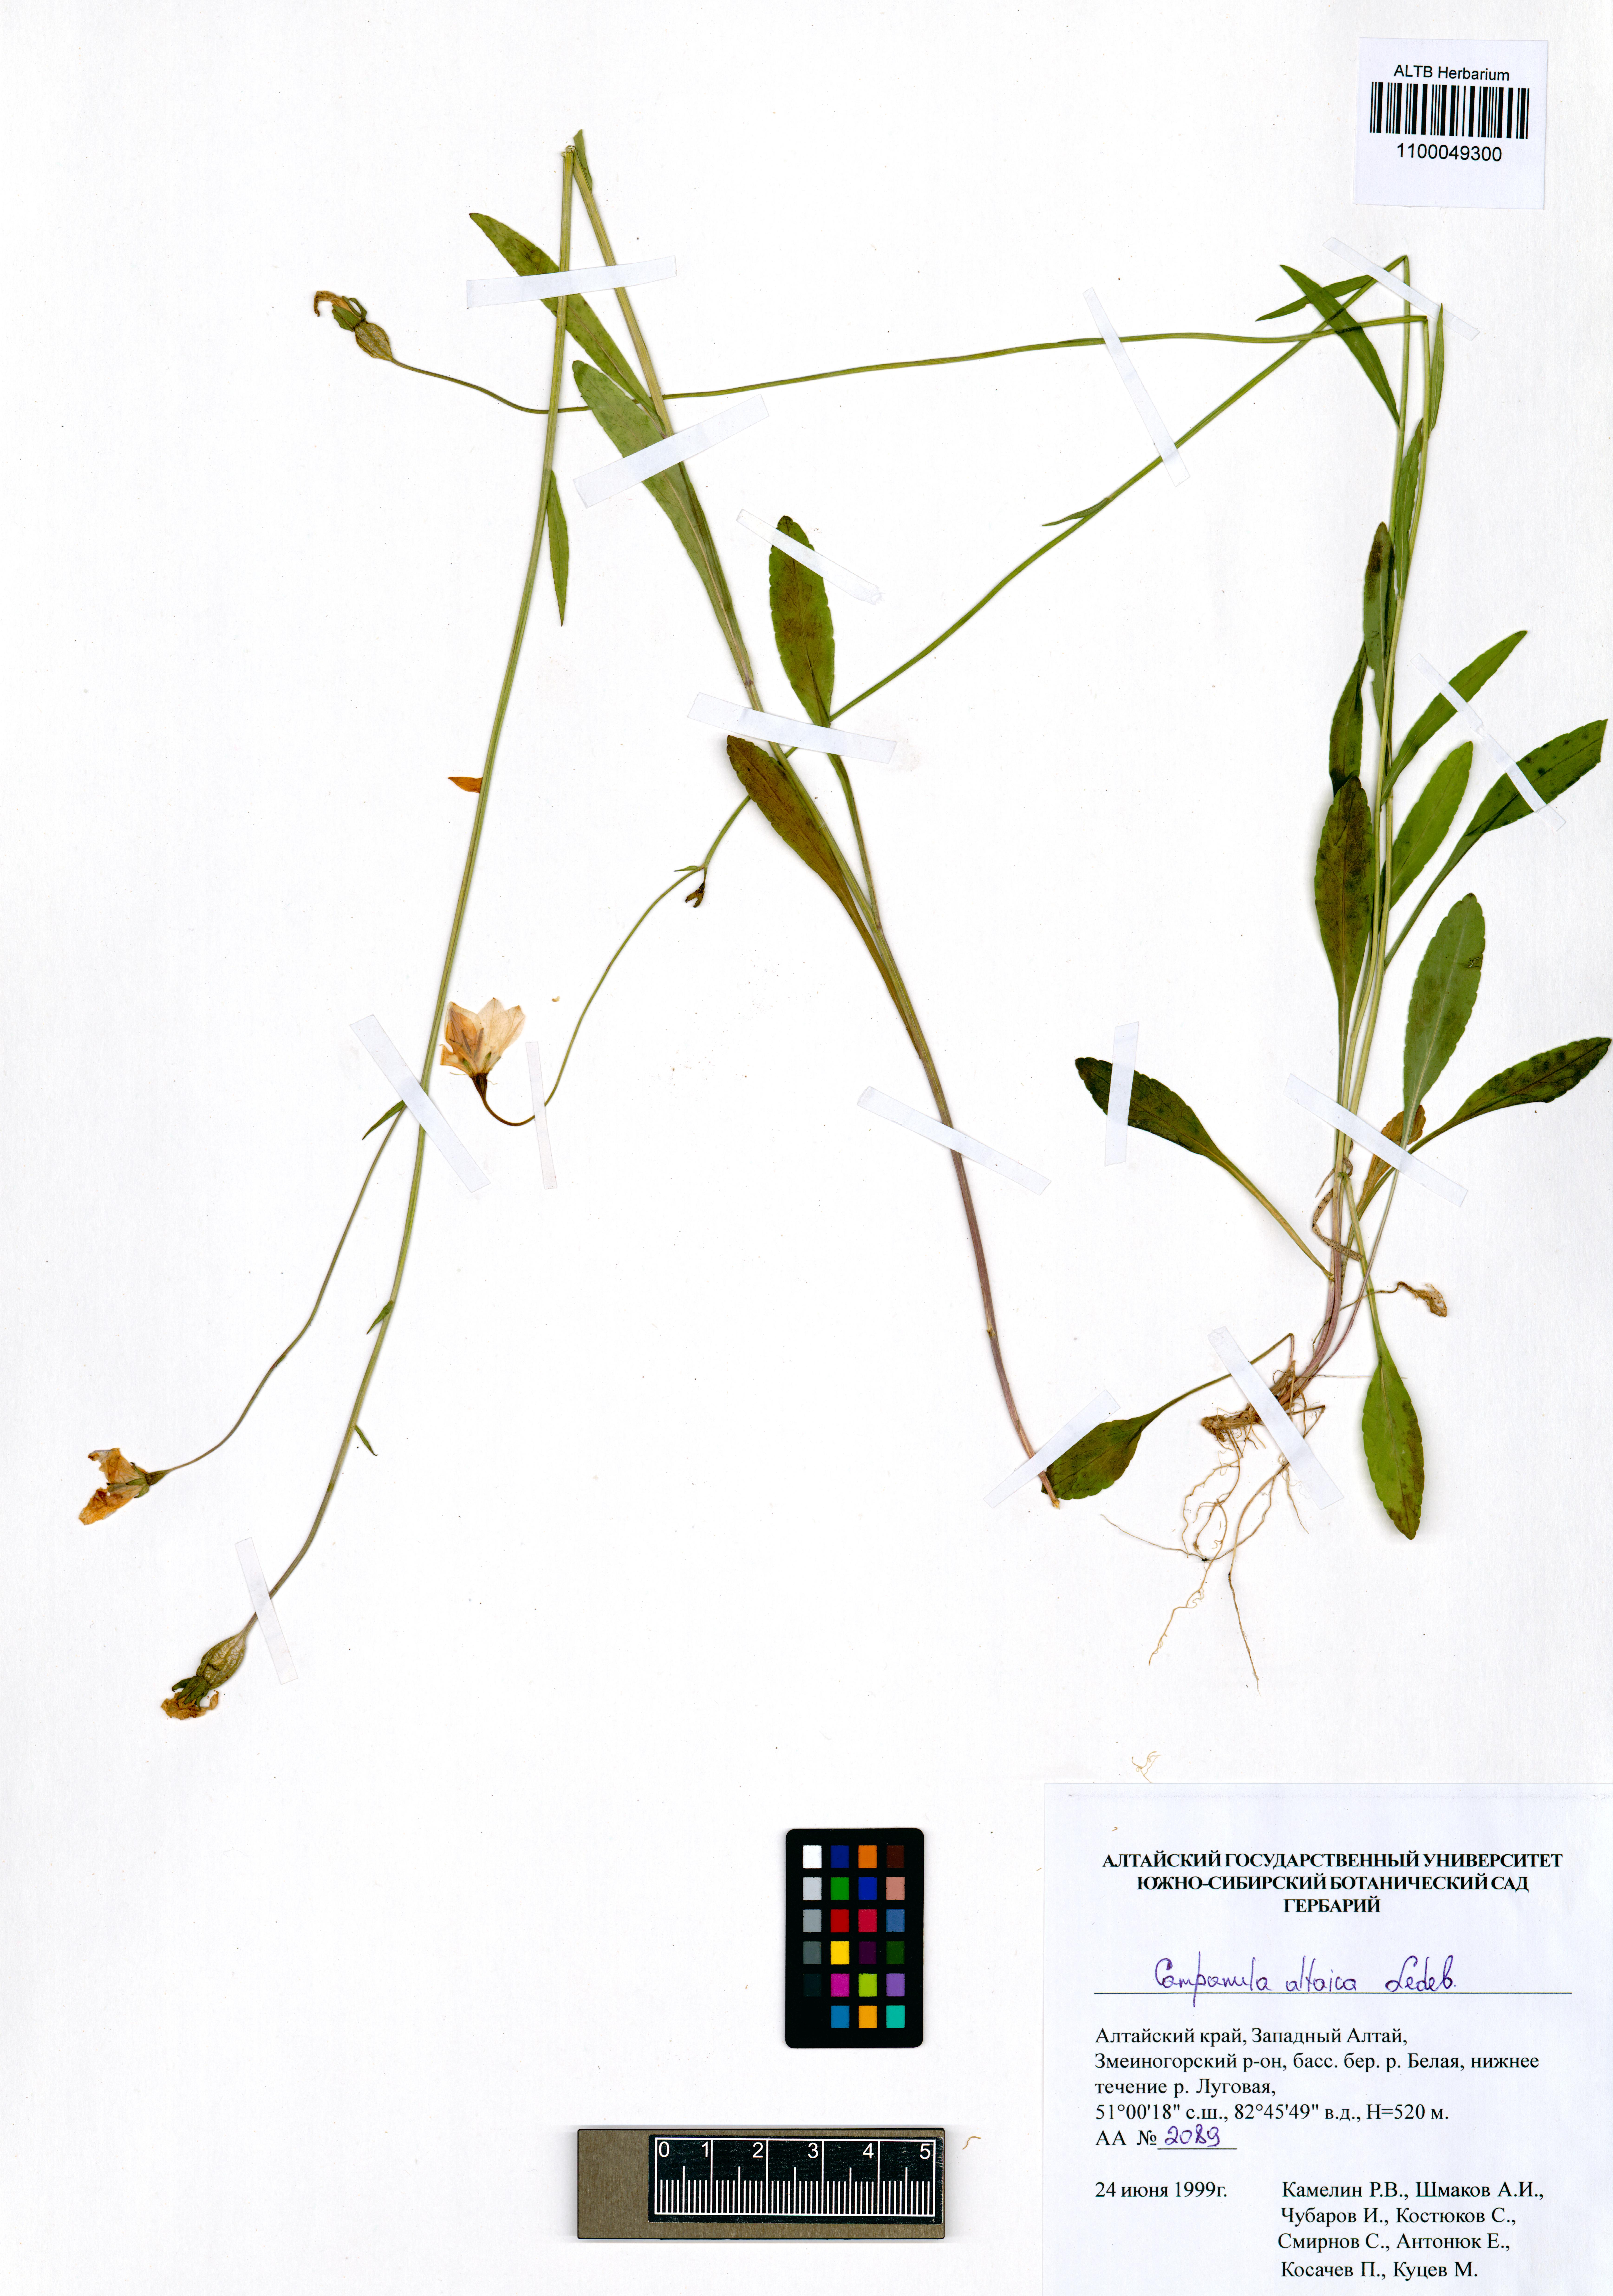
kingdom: Plantae
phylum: Tracheophyta
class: Magnoliopsida
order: Asterales
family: Campanulaceae
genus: Campanula
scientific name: Campanula stevenii
